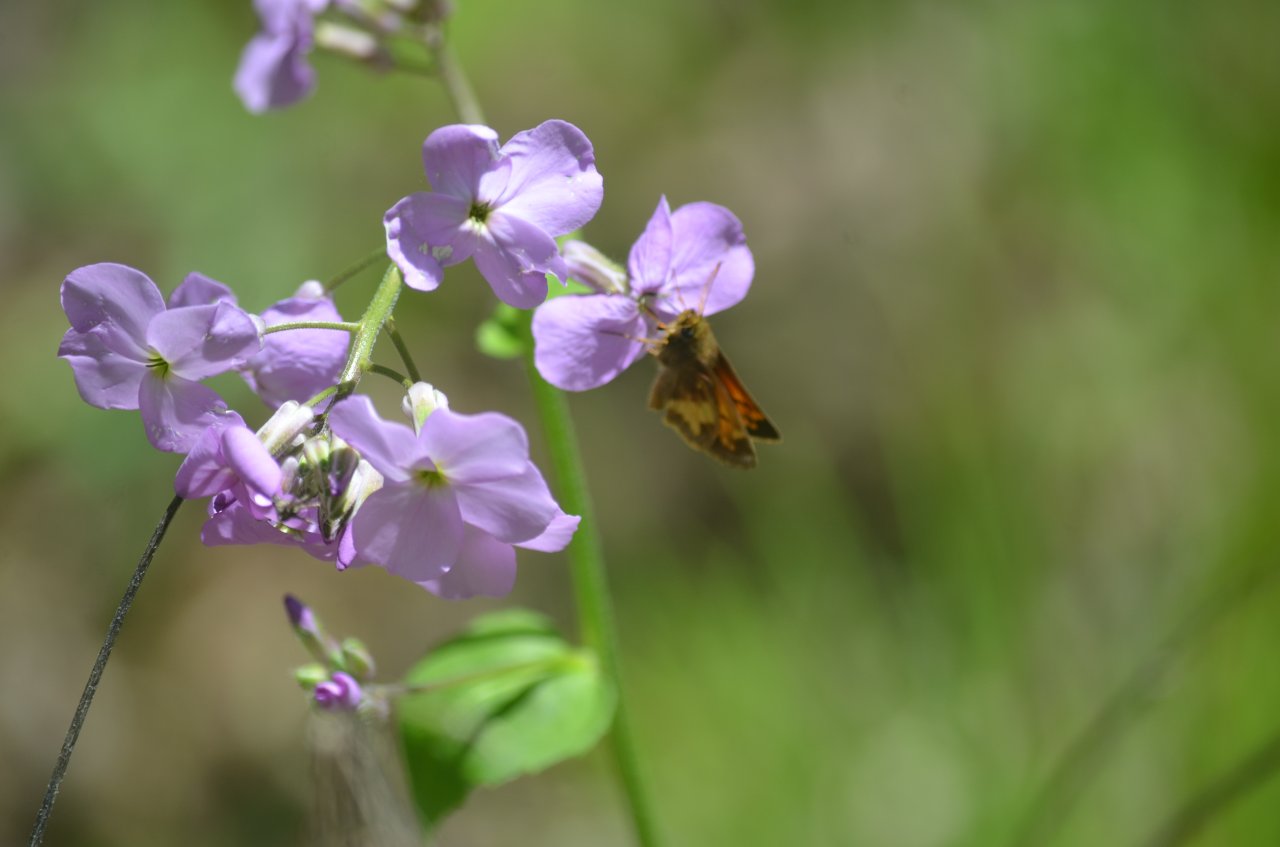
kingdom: Animalia
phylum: Arthropoda
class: Insecta
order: Lepidoptera
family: Hesperiidae
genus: Lon
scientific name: Lon hobomok
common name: Hobomok Skipper
